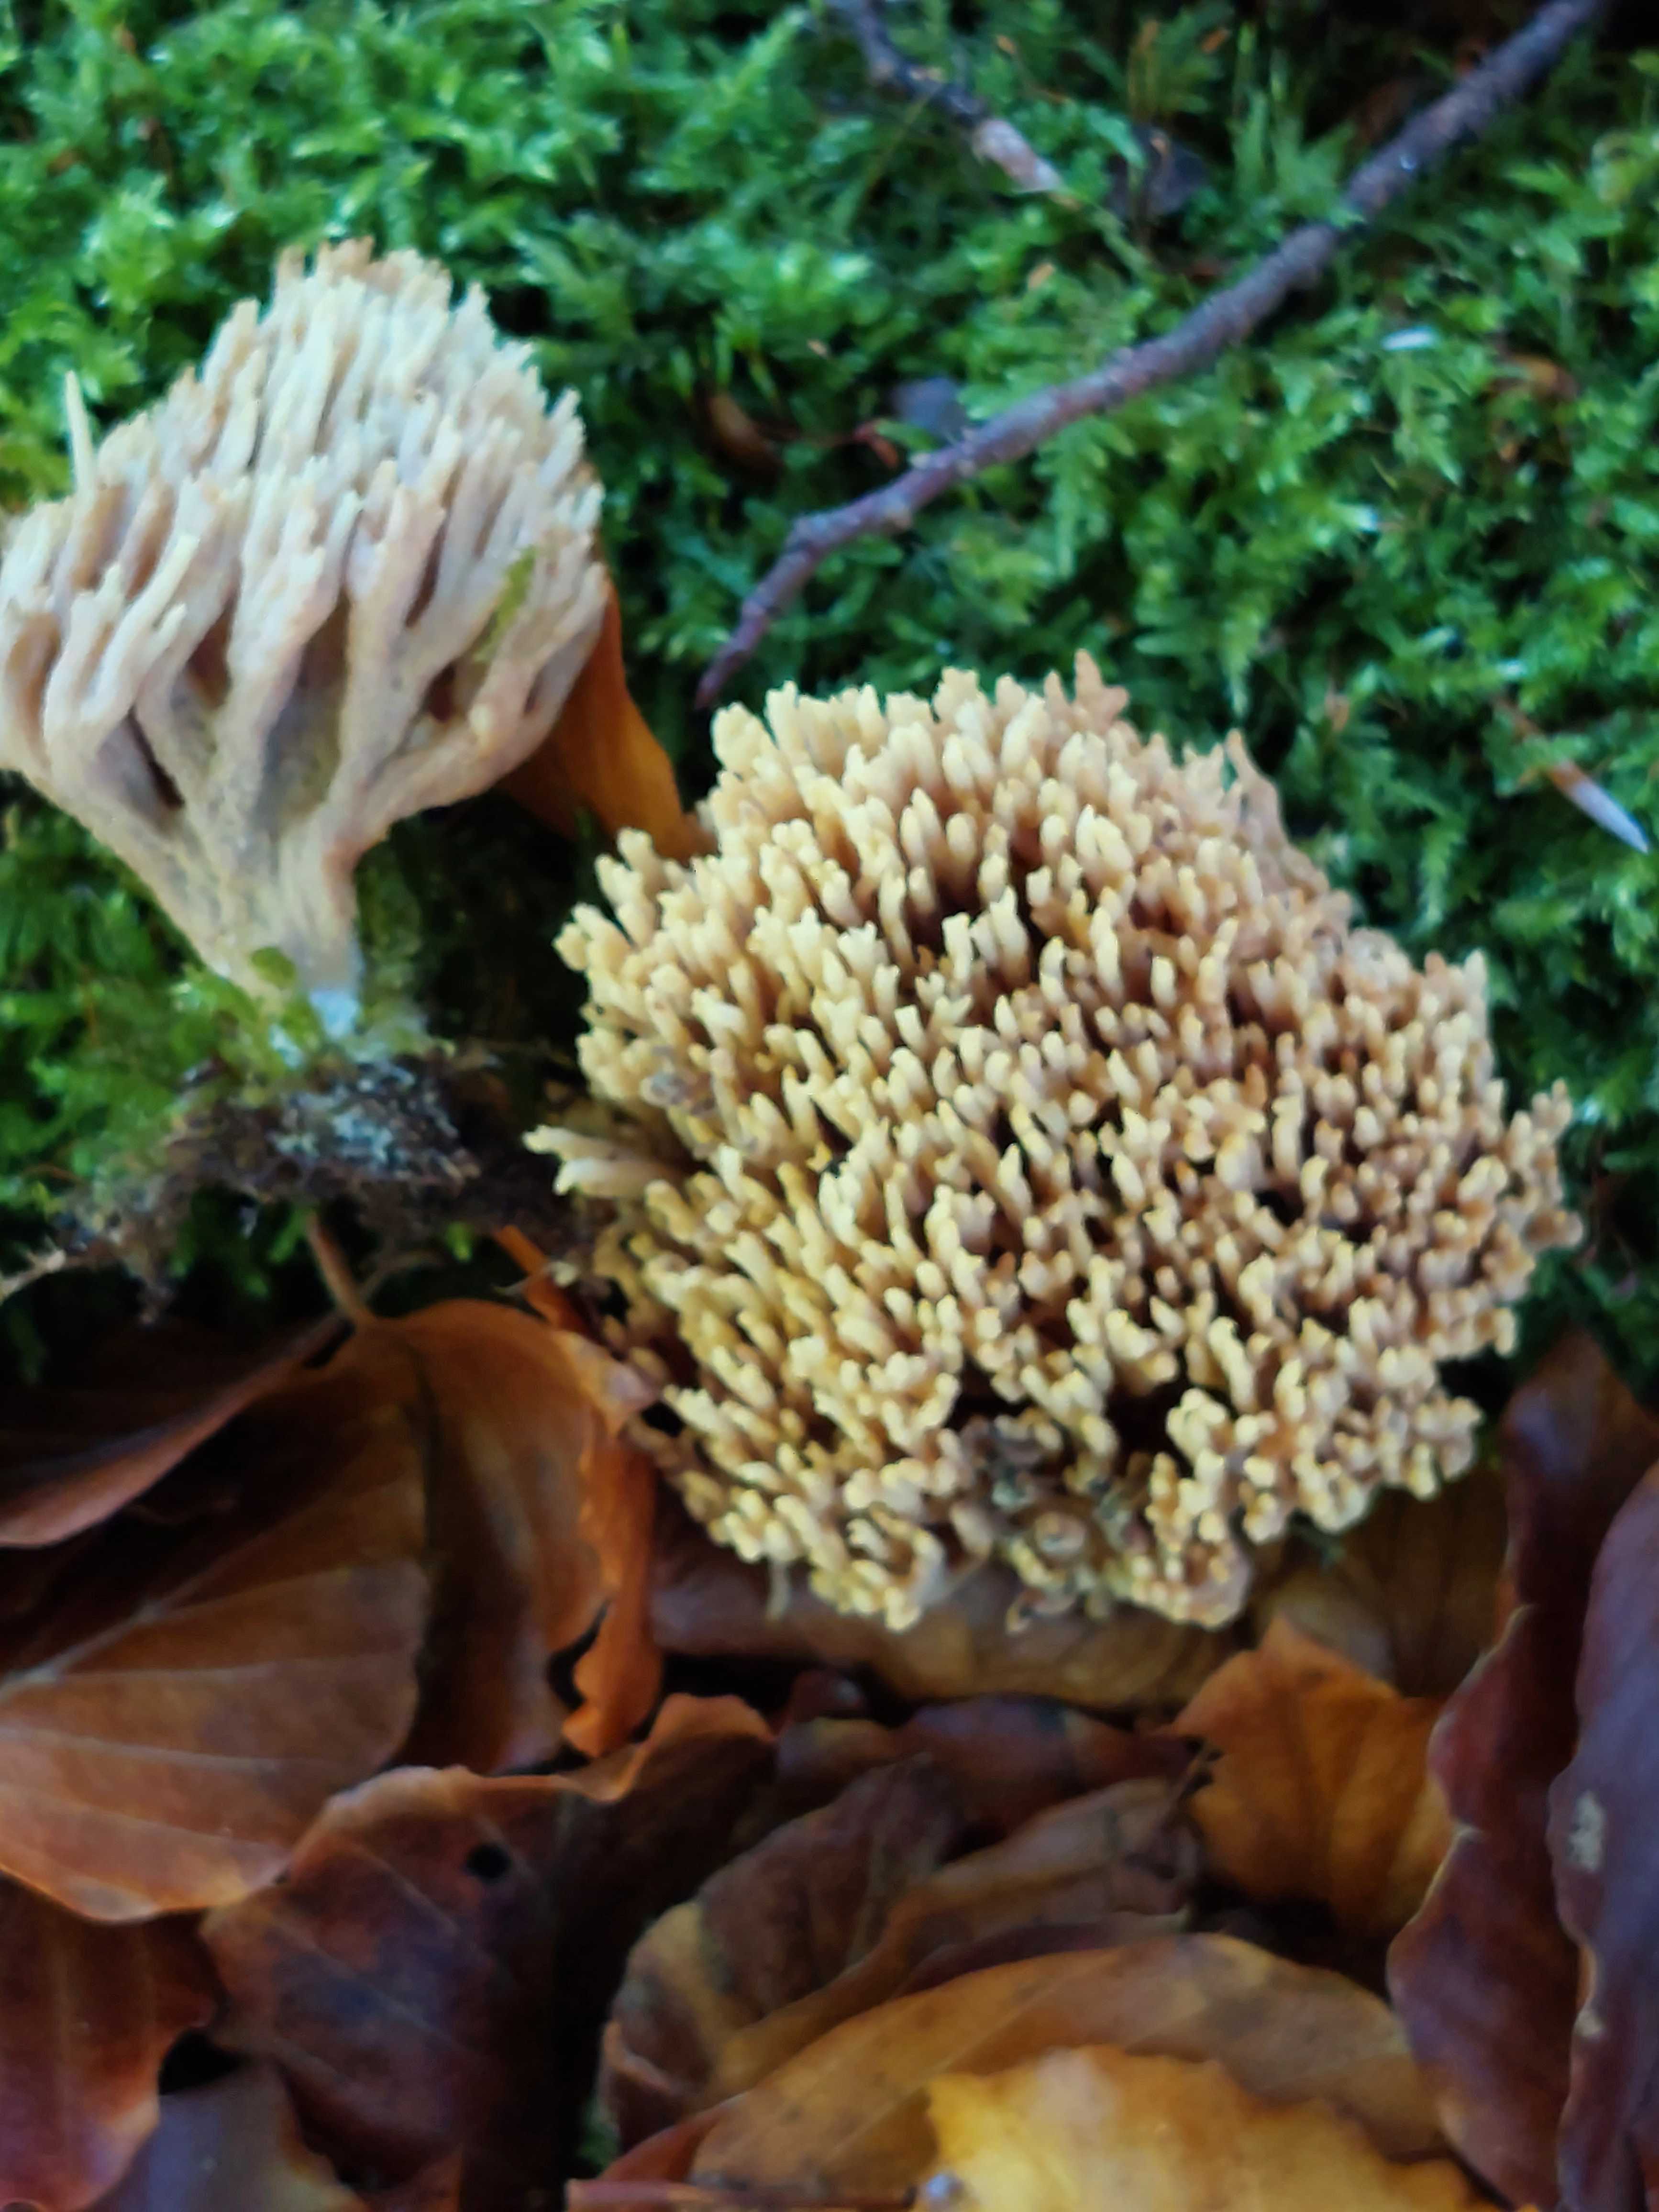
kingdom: Fungi
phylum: Basidiomycota
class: Agaricomycetes
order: Gomphales
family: Gomphaceae
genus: Ramaria
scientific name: Ramaria stricta
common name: rank koralsvamp
